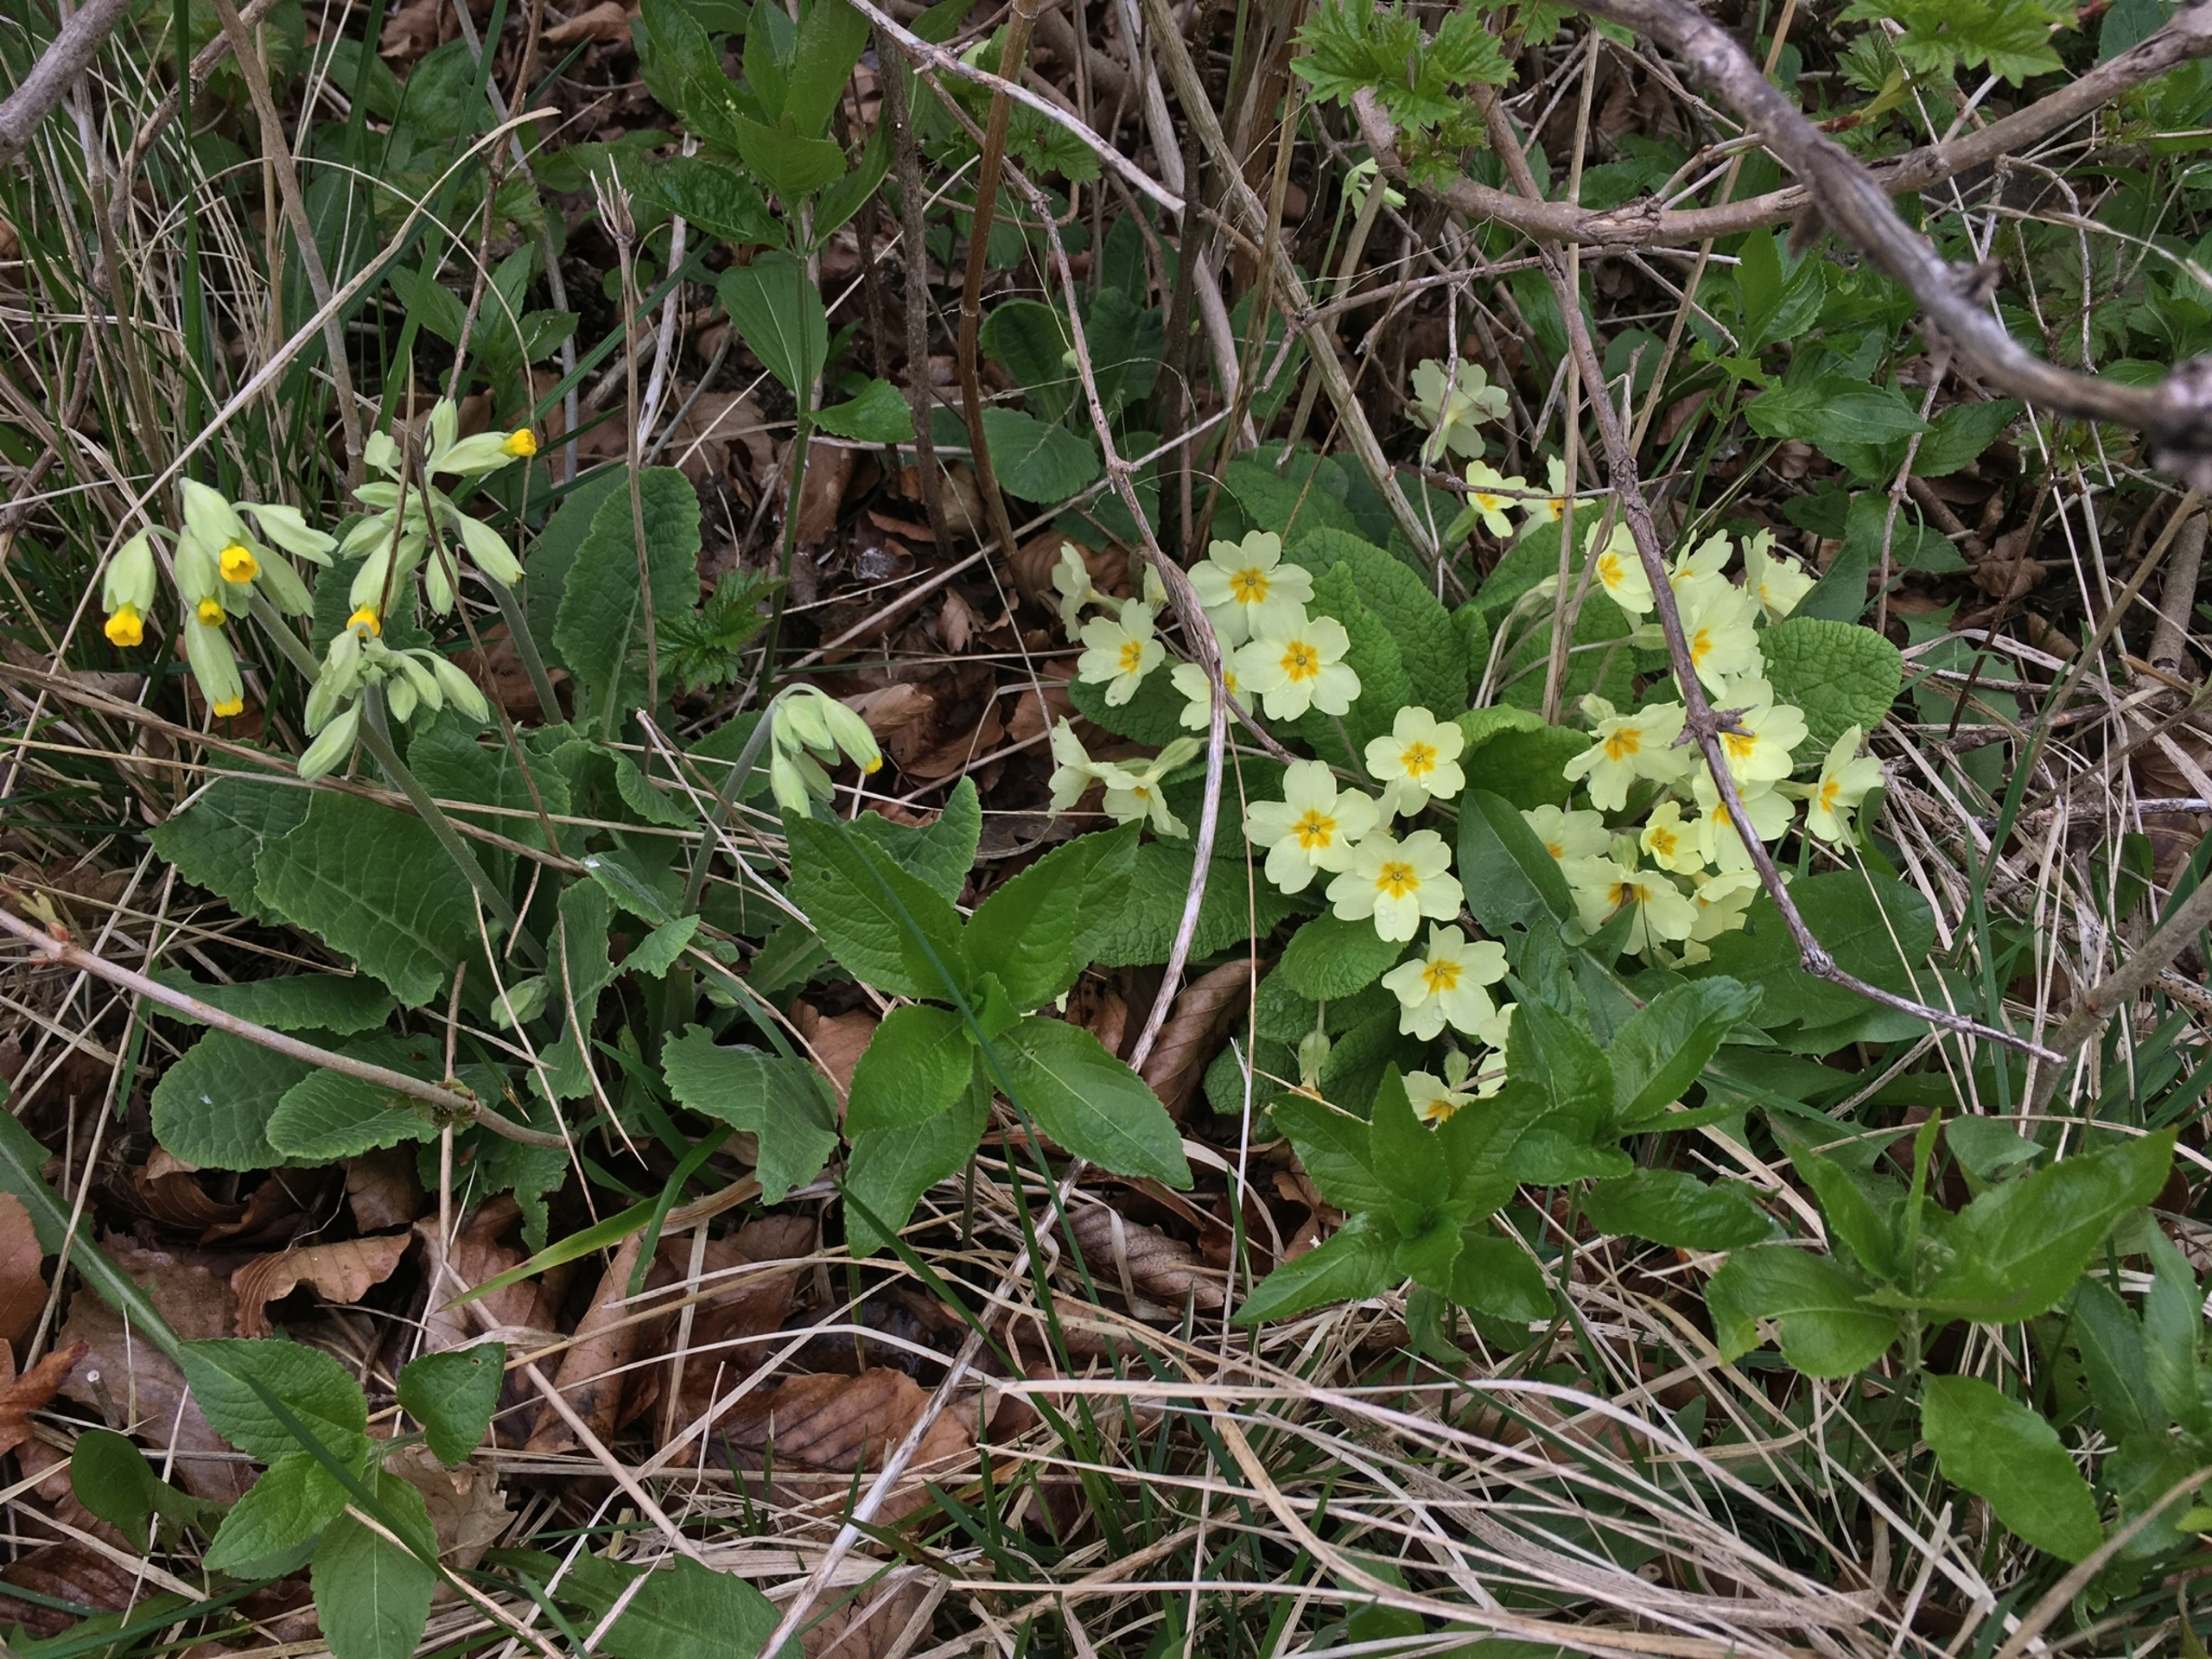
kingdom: Plantae
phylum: Tracheophyta
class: Magnoliopsida
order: Ericales
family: Primulaceae
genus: Primula
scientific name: Primula vulgaris
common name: Storblomstret kodriver
